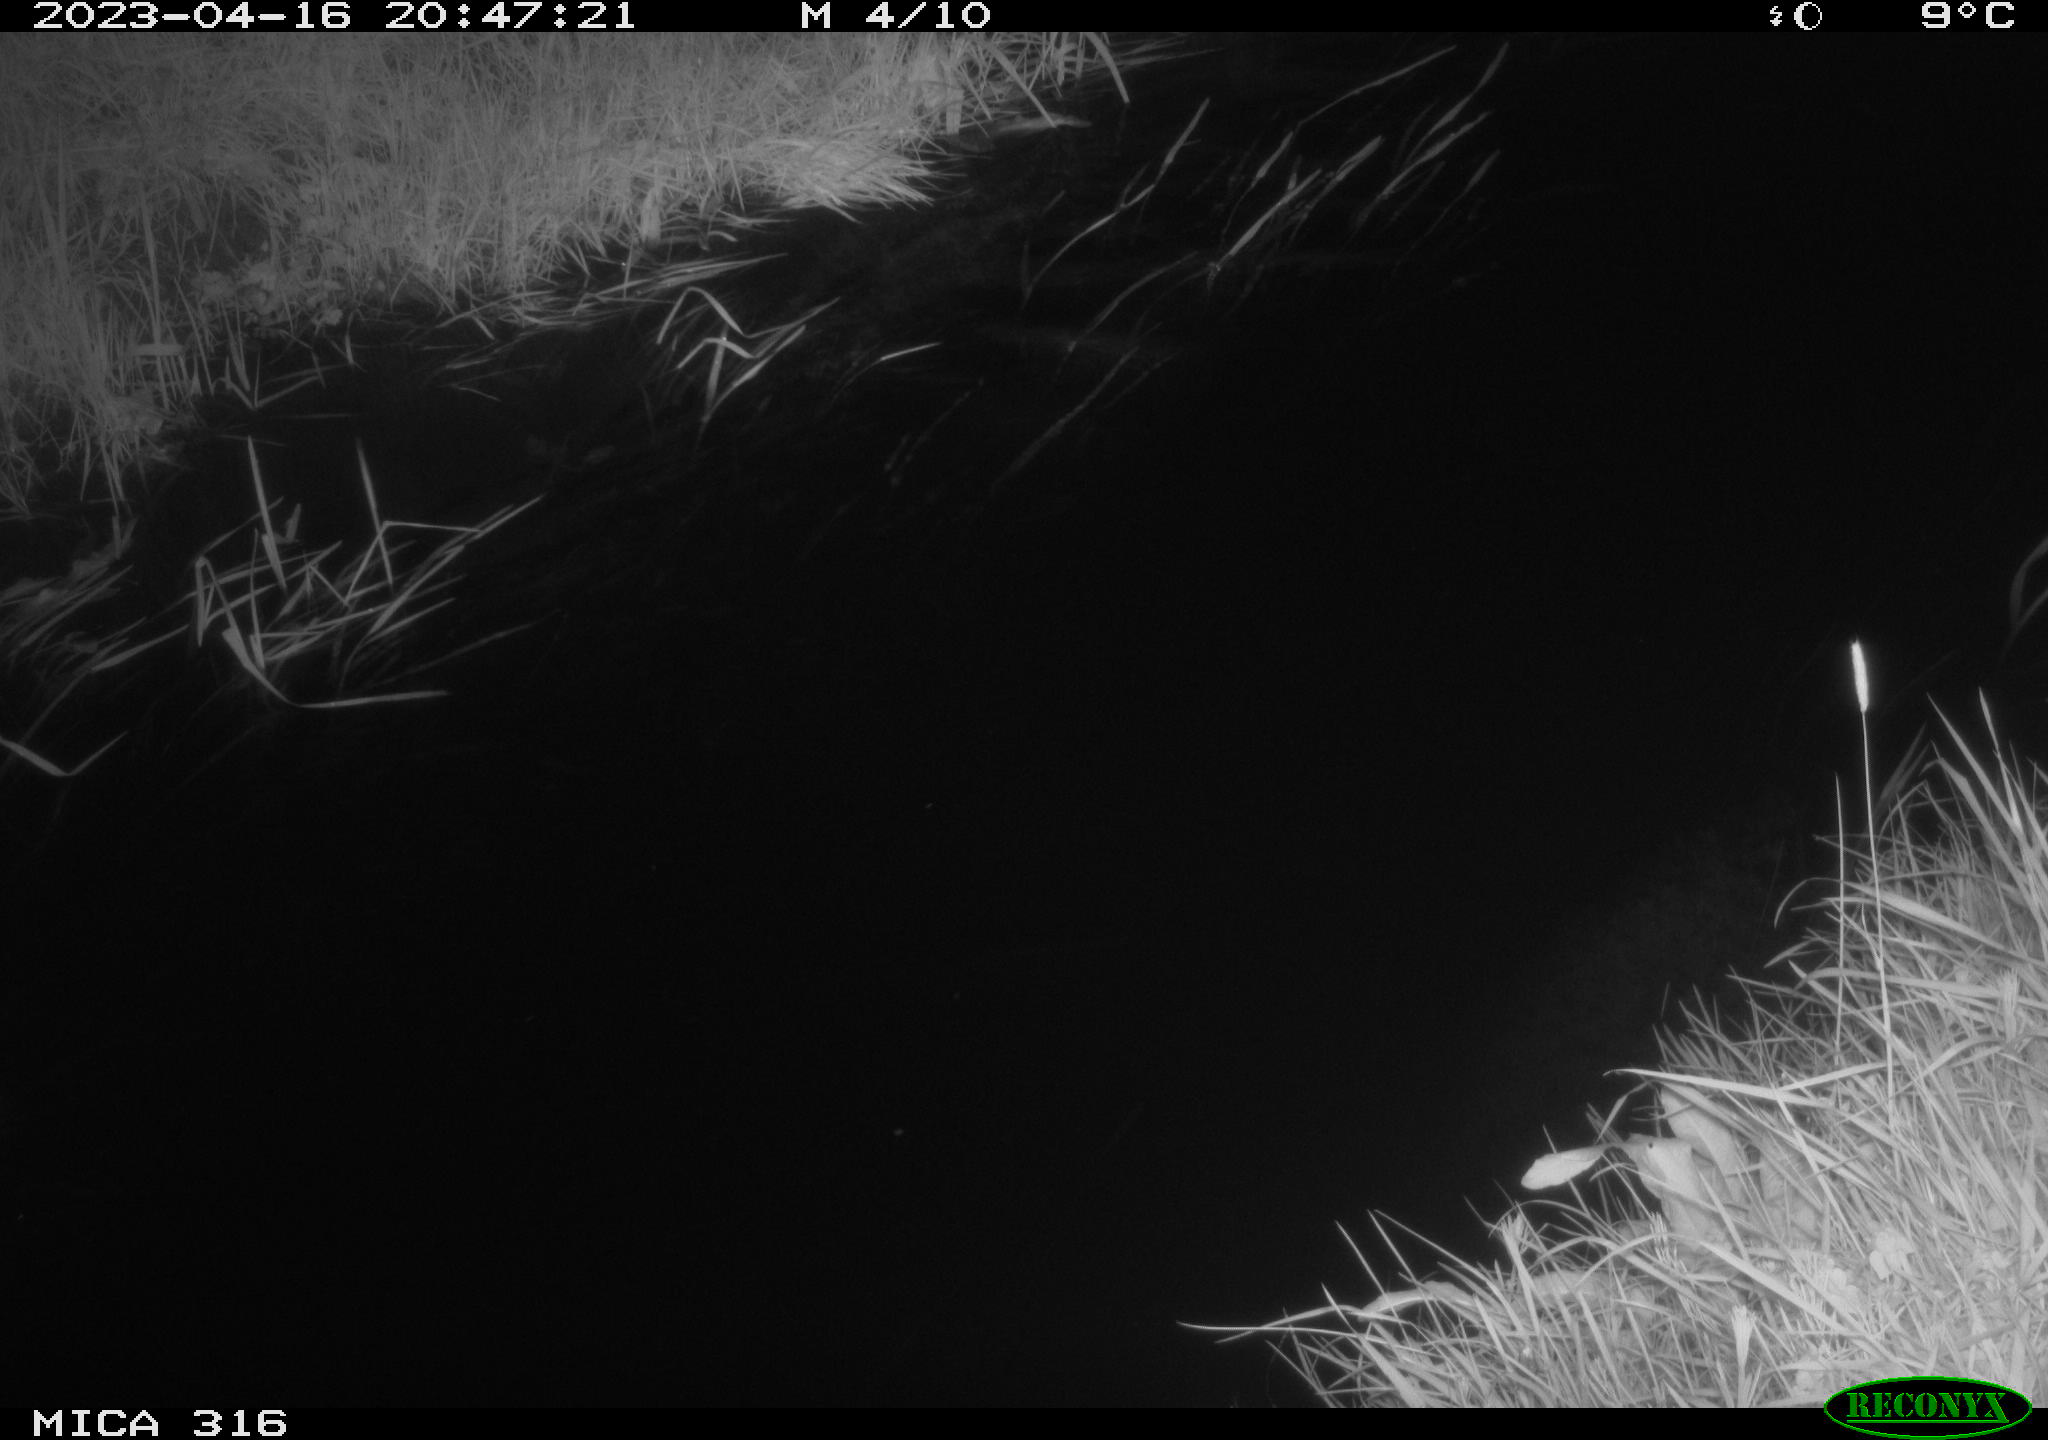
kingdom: Animalia
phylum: Chordata
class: Aves
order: Anseriformes
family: Anatidae
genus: Anas
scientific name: Anas
